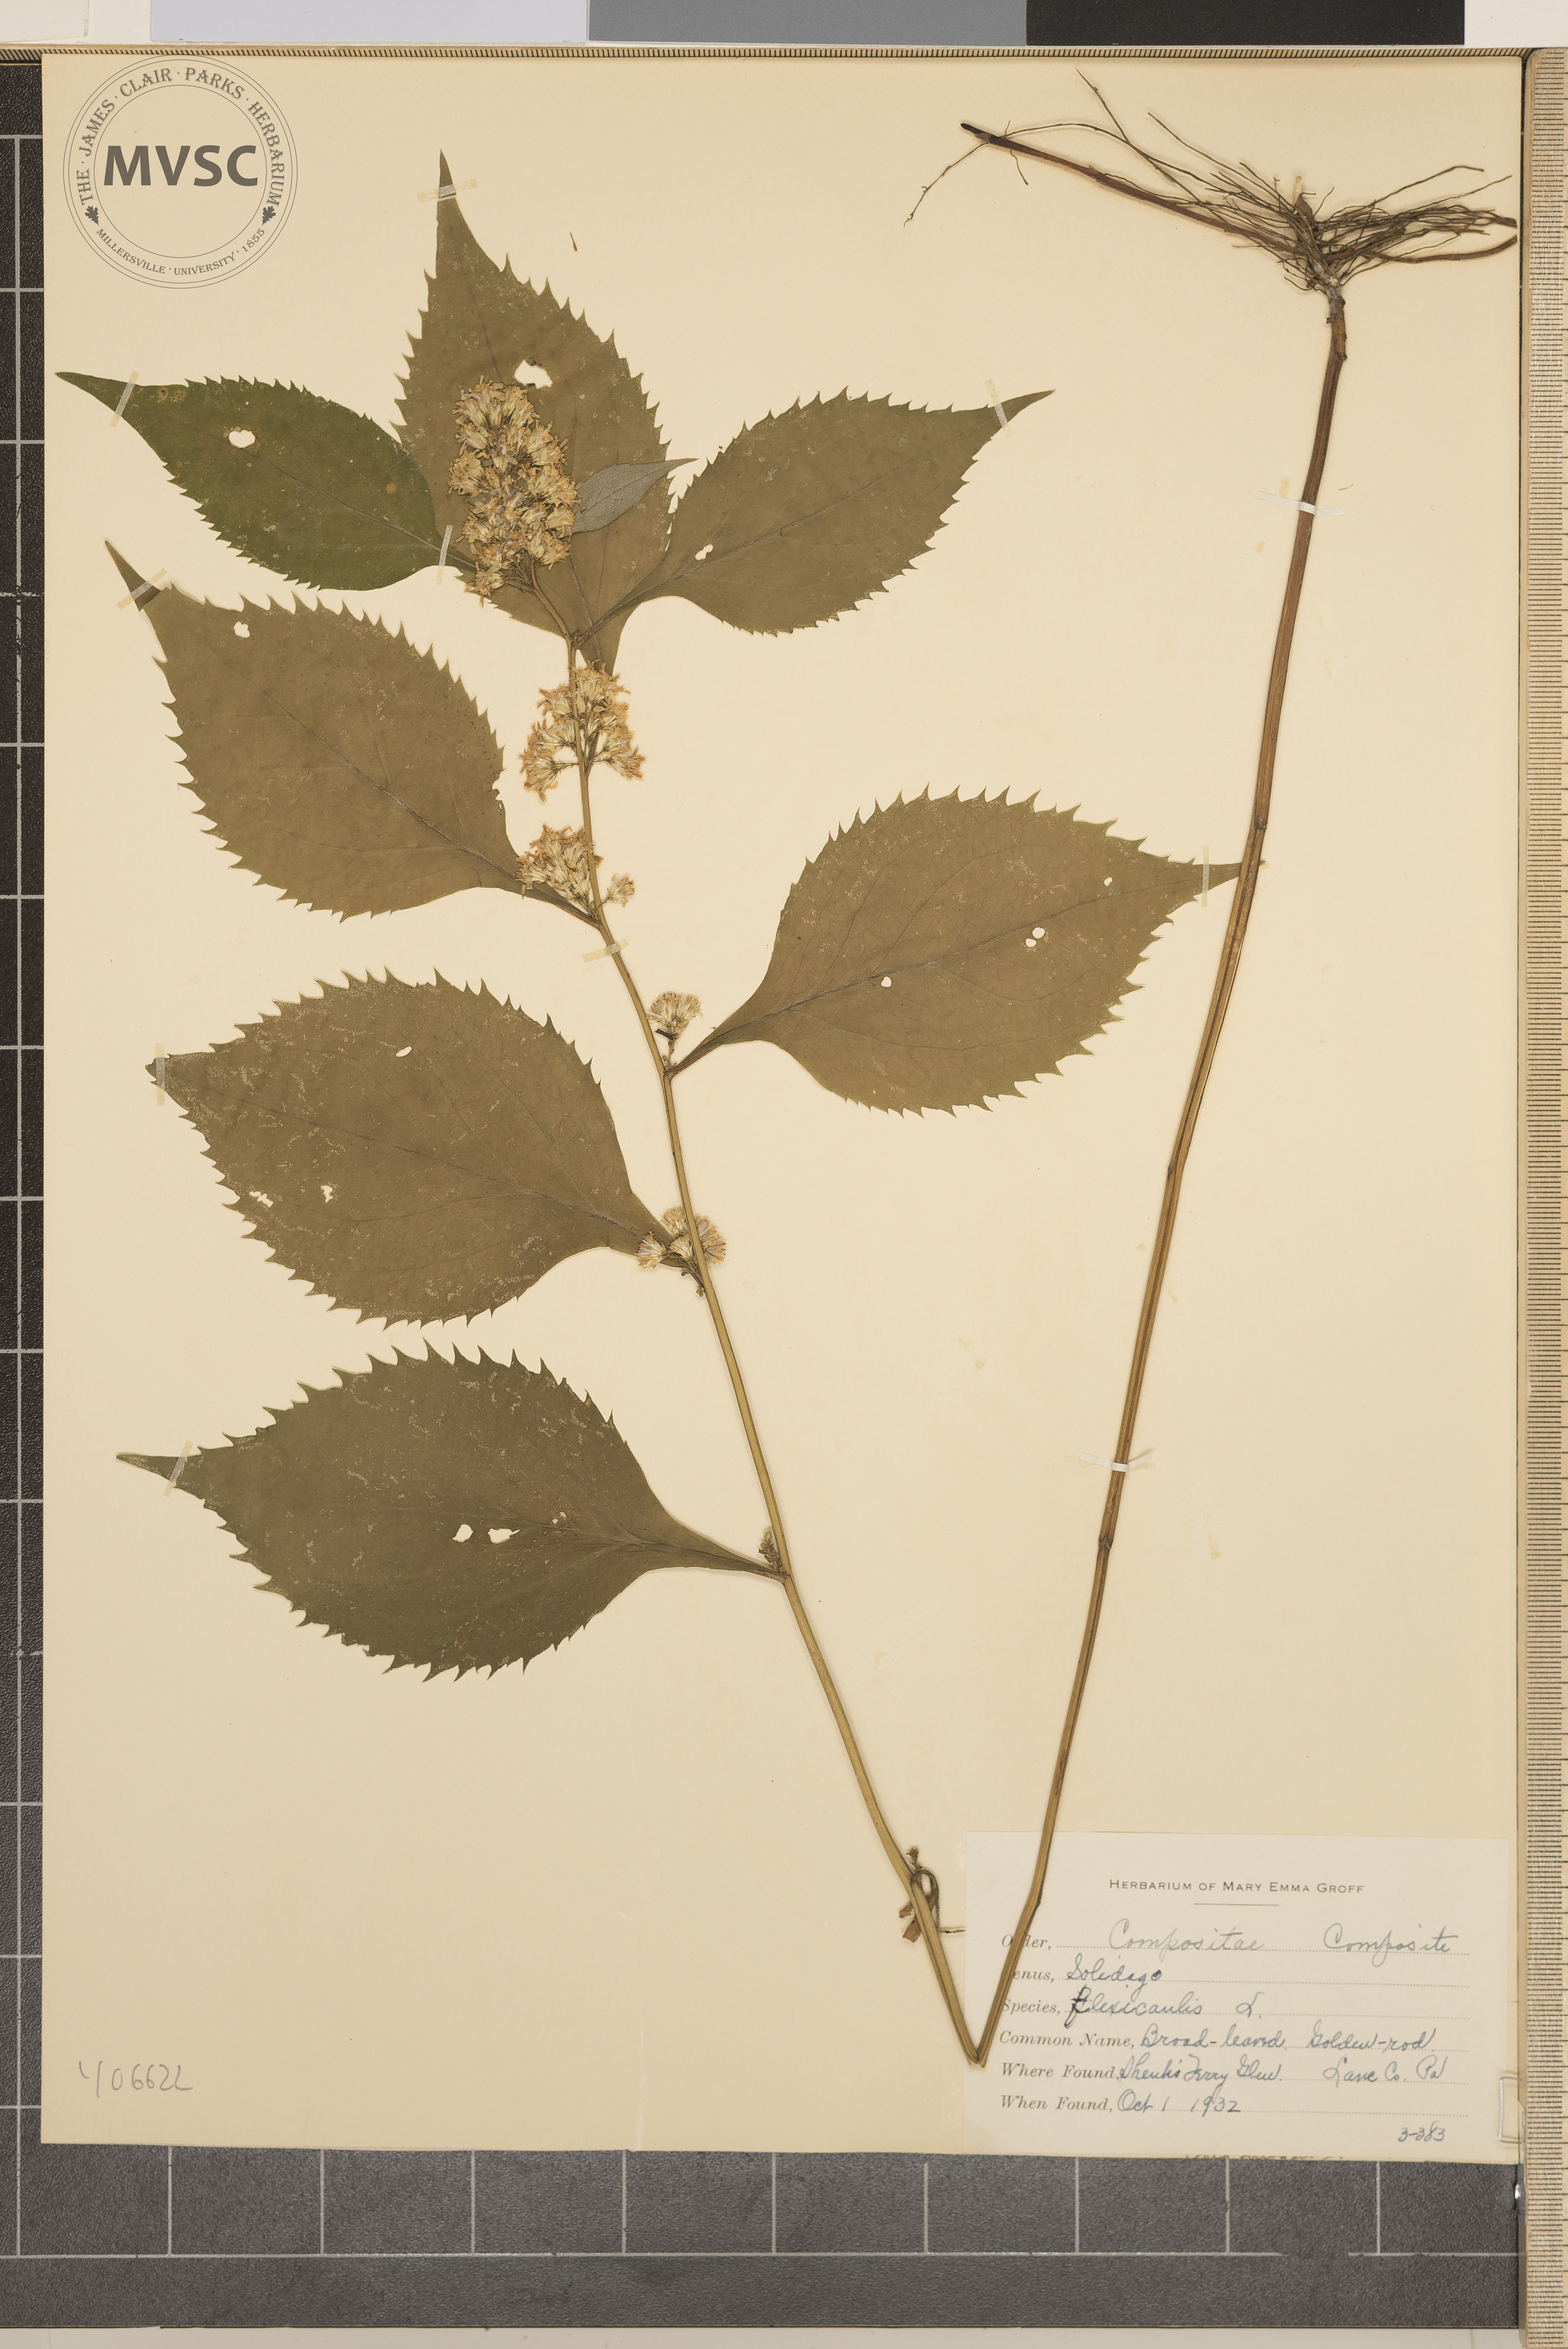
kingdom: Plantae
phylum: Tracheophyta
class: Magnoliopsida
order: Asterales
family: Asteraceae
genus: Solidago
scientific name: Solidago flexicaulis
